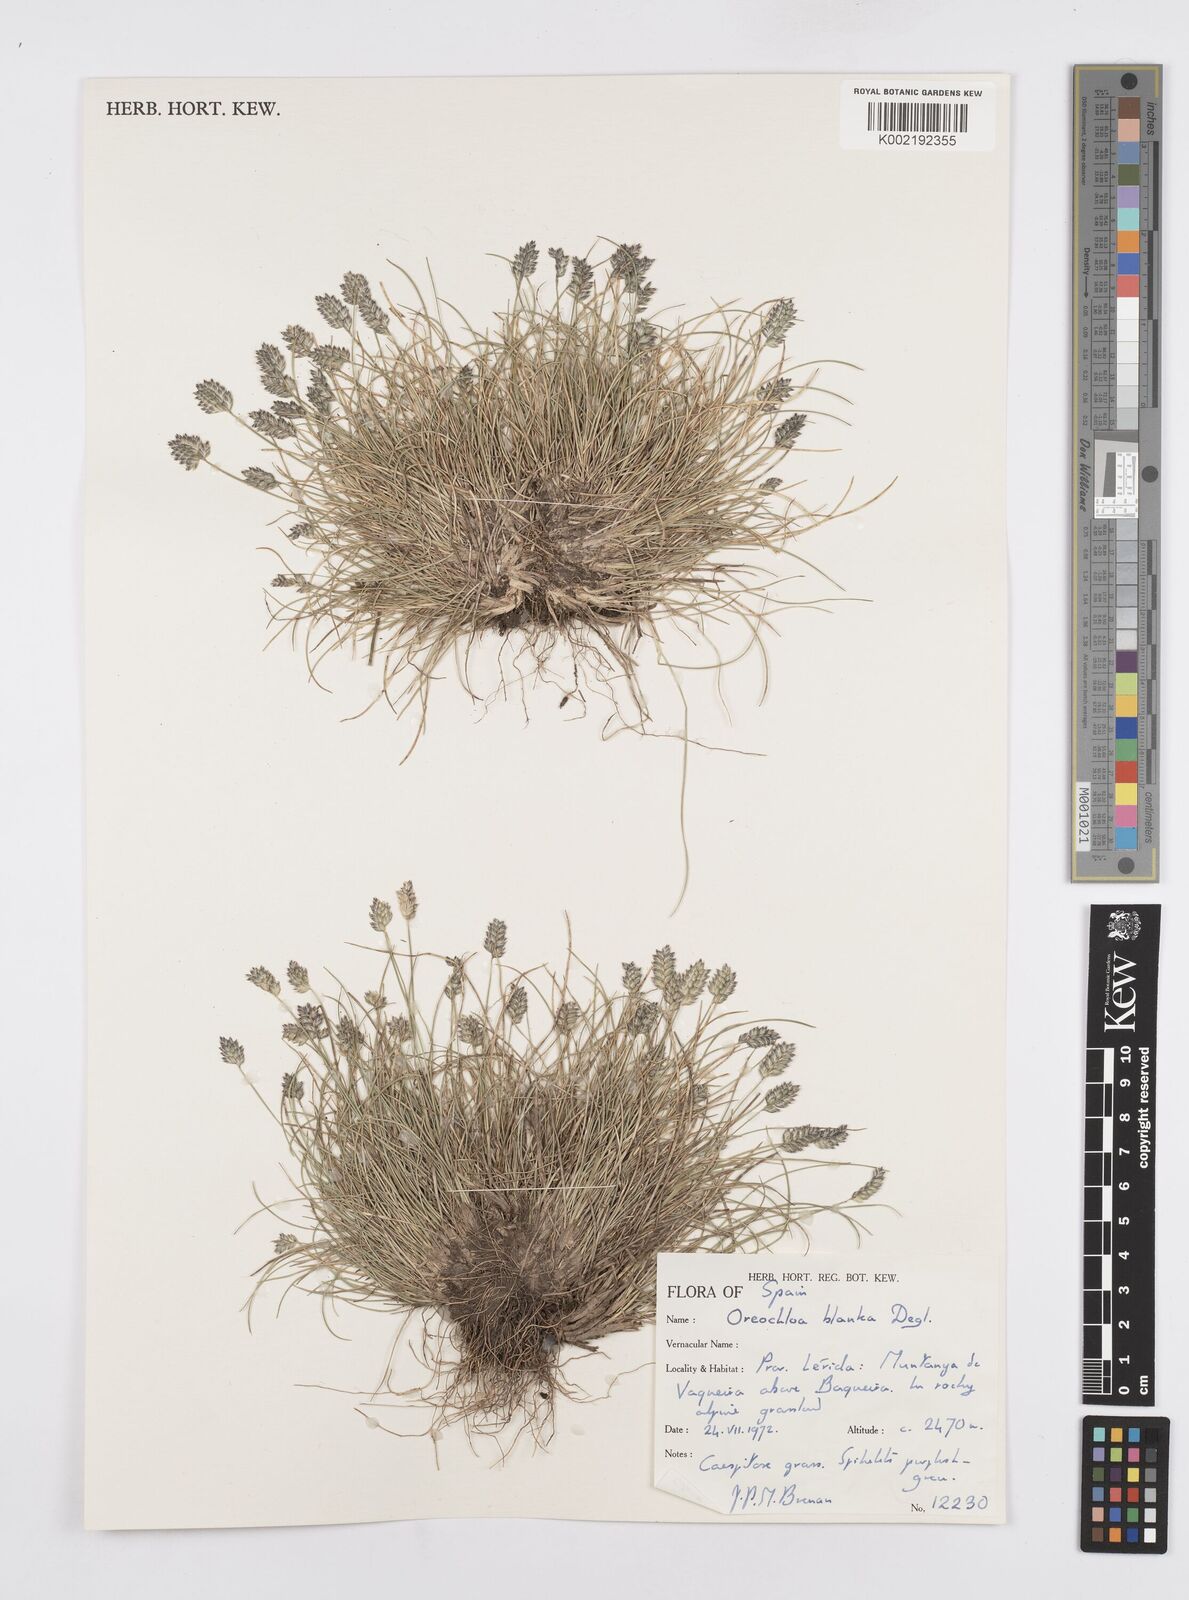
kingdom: Plantae
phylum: Tracheophyta
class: Liliopsida
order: Poales
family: Poaceae
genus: Oreochloa
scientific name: Oreochloa elegans
